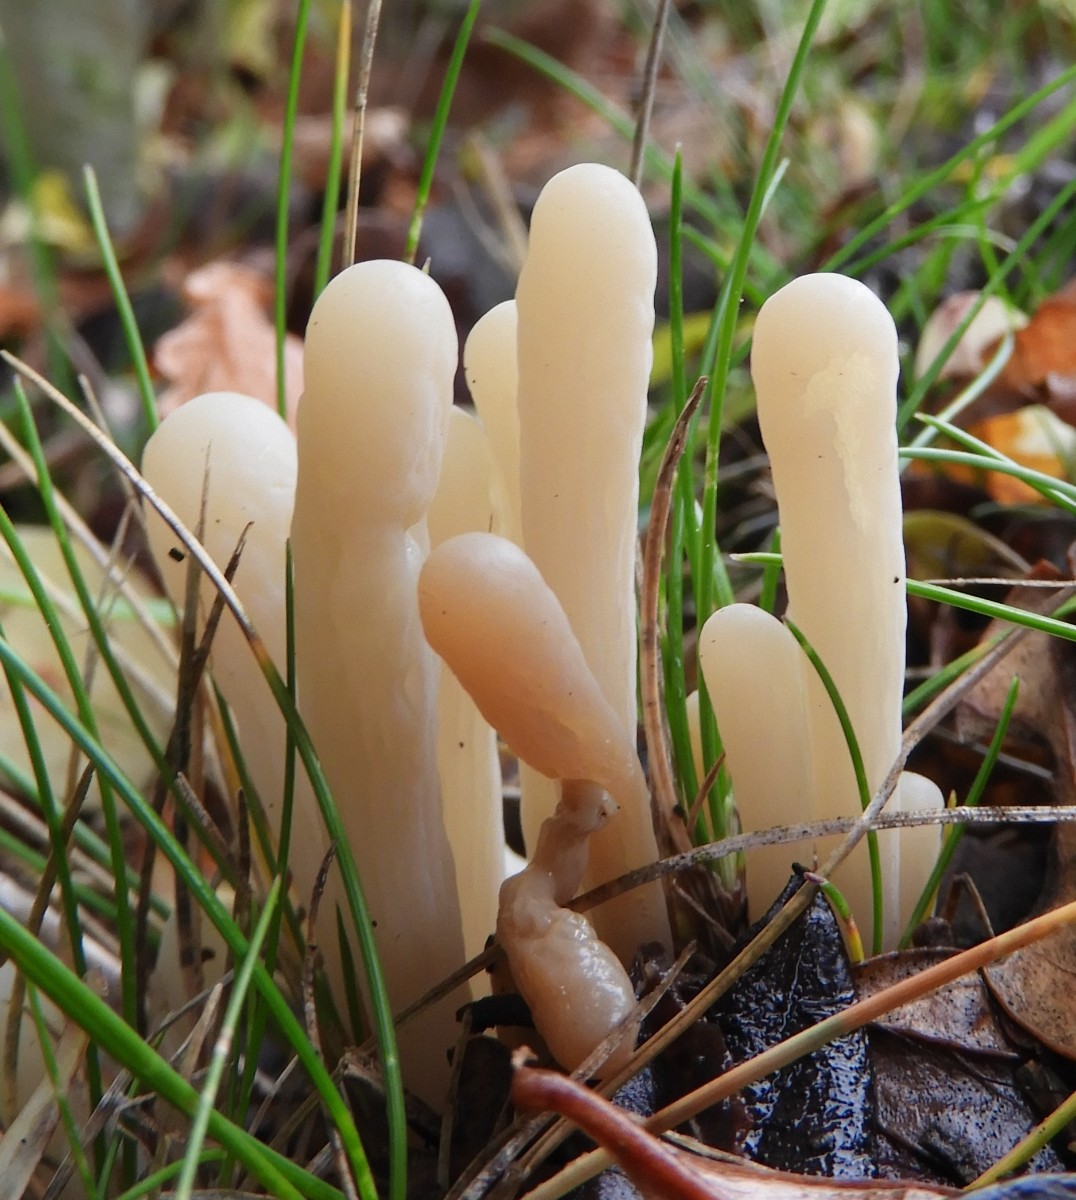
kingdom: Fungi
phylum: Basidiomycota
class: Agaricomycetes
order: Agaricales
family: Clavariaceae
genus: Clavaria
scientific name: Clavaria tenuipes
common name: isabellafarvet køllesvamp
